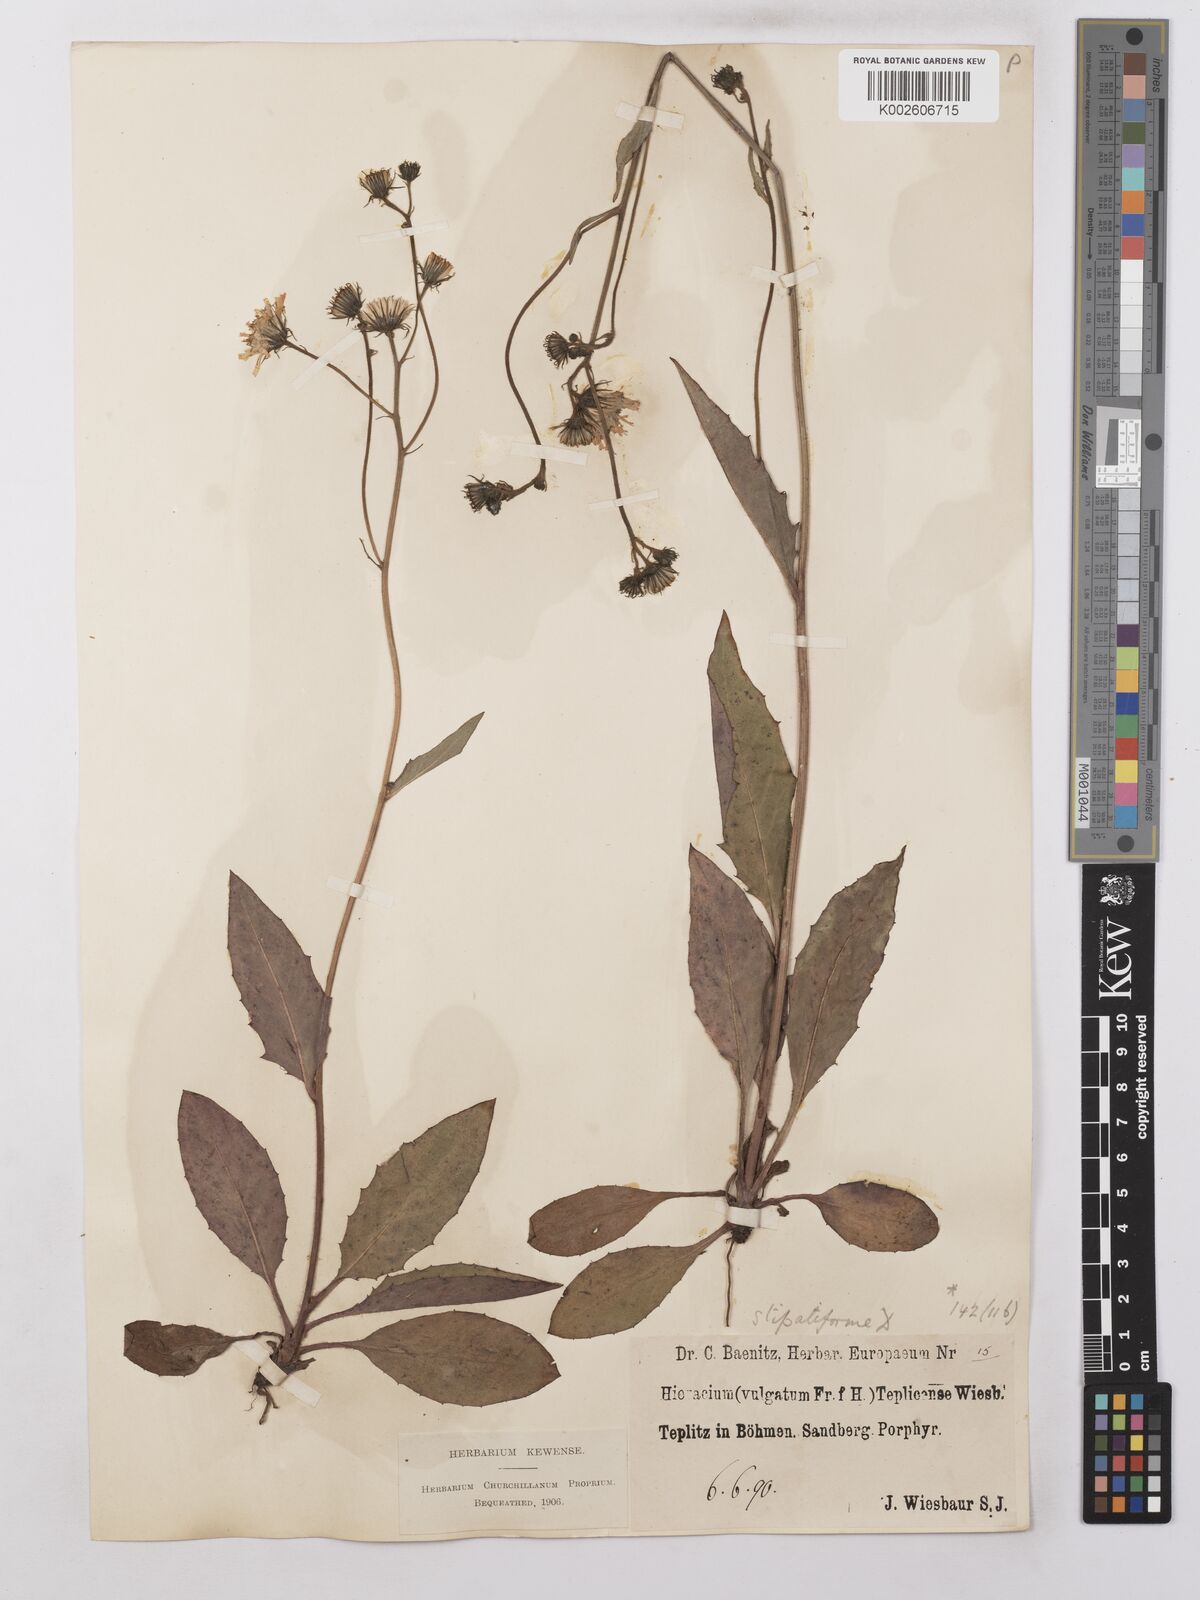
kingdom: Plantae
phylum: Tracheophyta
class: Magnoliopsida
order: Asterales
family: Asteraceae
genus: Hieracium
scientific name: Hieracium lachenalii
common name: Common hawkweed
